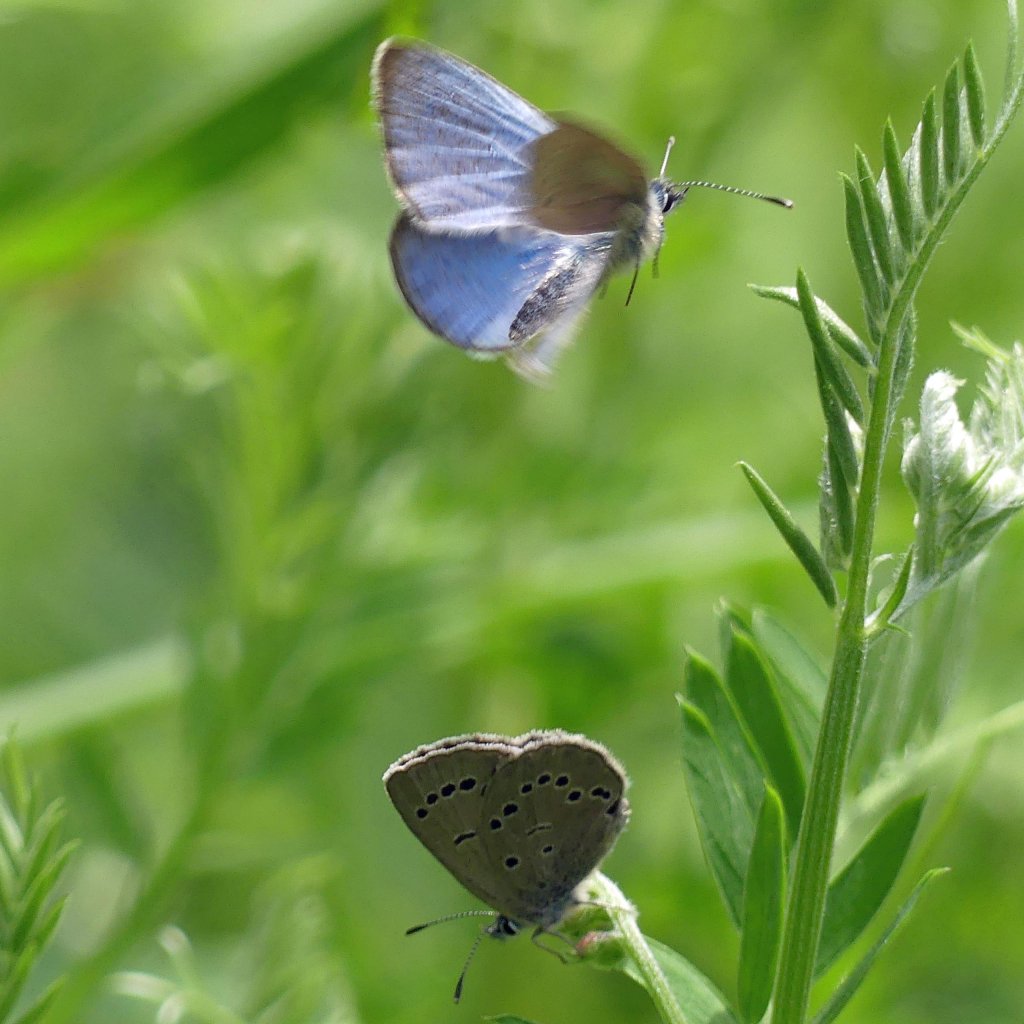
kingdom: Animalia
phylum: Arthropoda
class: Insecta
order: Lepidoptera
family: Lycaenidae
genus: Glaucopsyche
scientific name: Glaucopsyche lygdamus
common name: Silvery Blue
